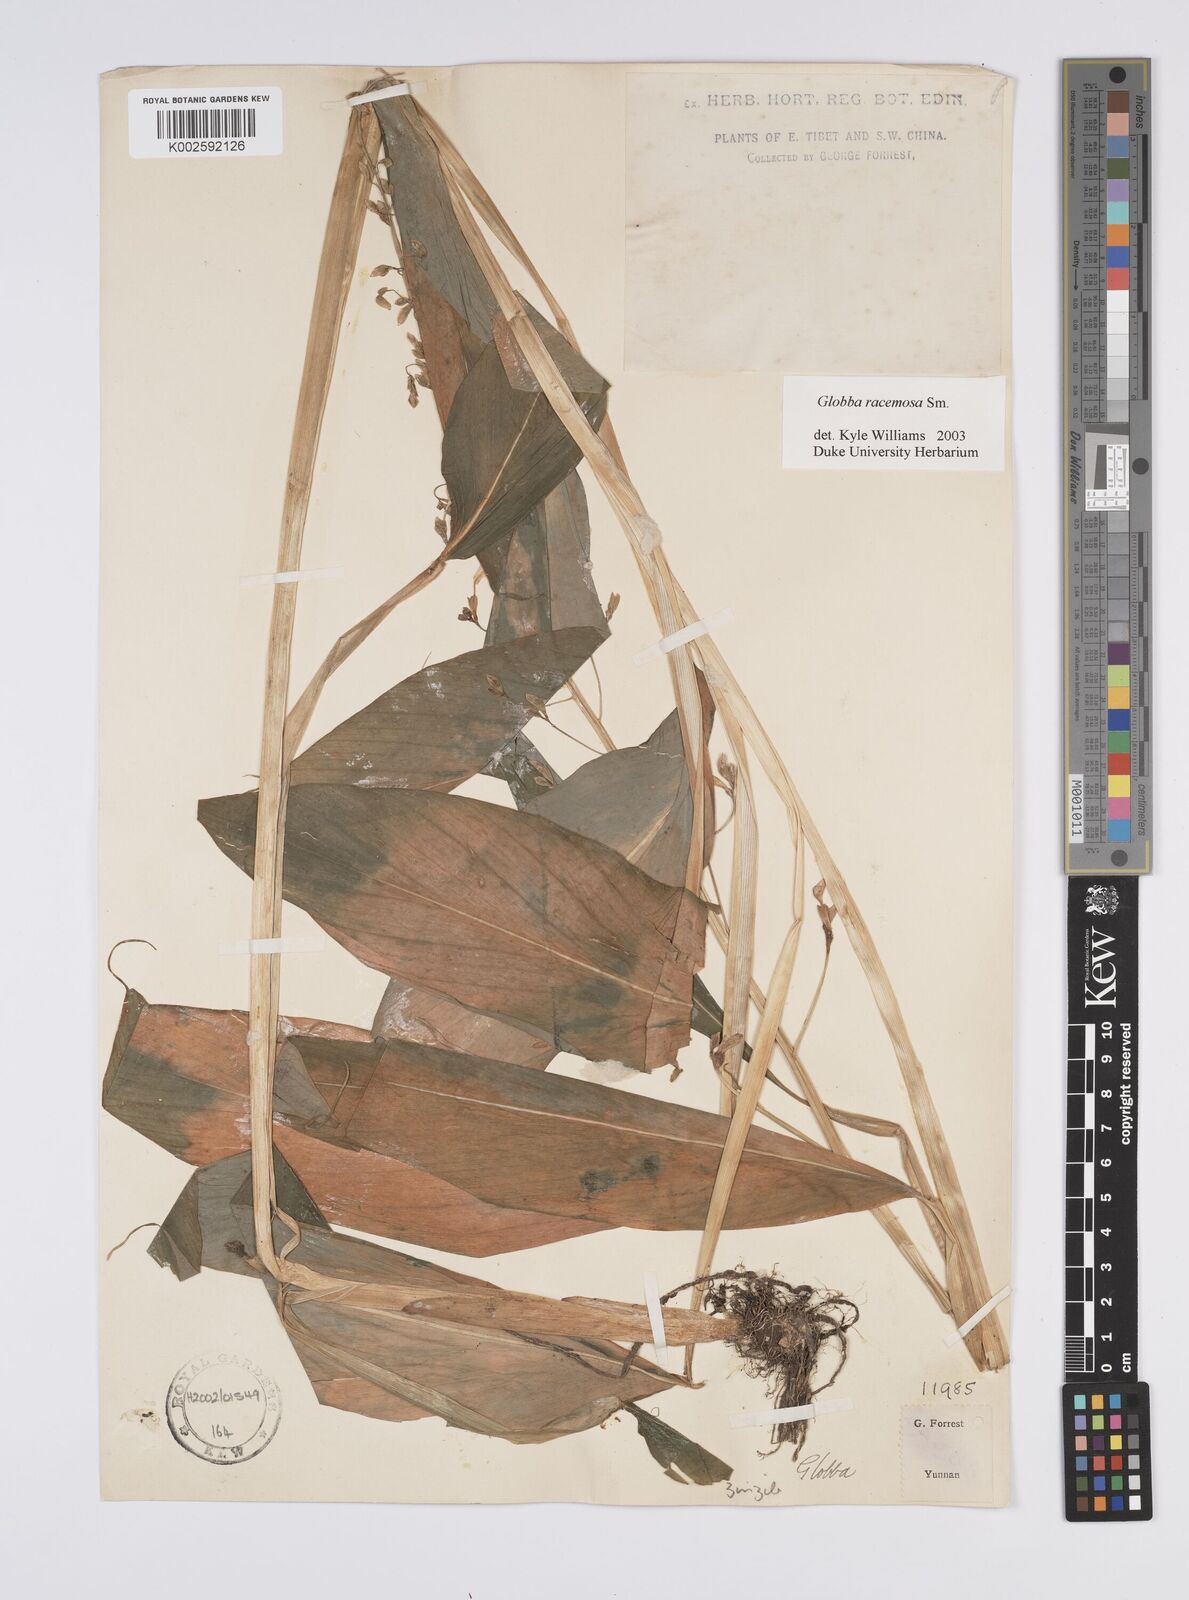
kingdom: Plantae
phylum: Tracheophyta
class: Liliopsida
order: Zingiberales
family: Zingiberaceae
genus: Globba
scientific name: Globba racemosa
